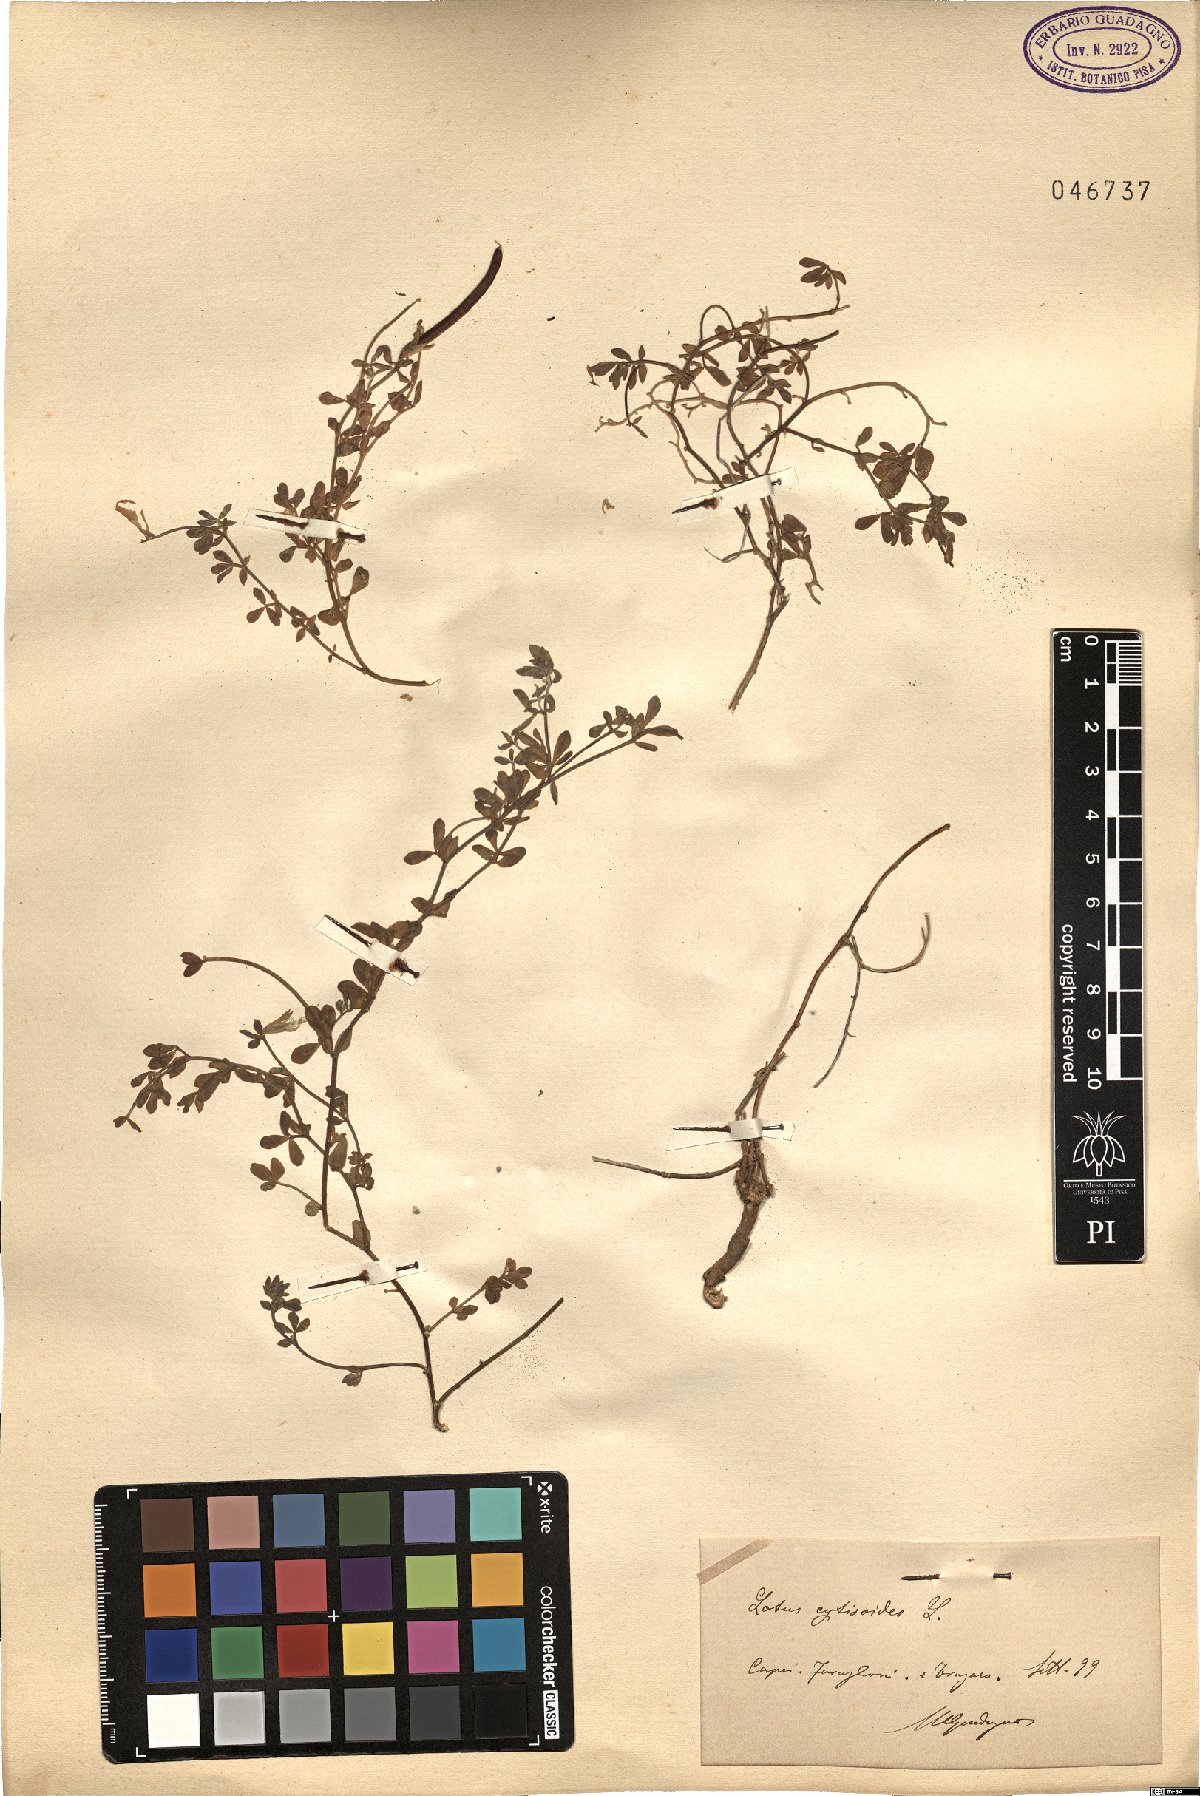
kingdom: Plantae
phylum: Tracheophyta
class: Magnoliopsida
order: Fabales
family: Fabaceae
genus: Lotus
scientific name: Lotus cytisoides
